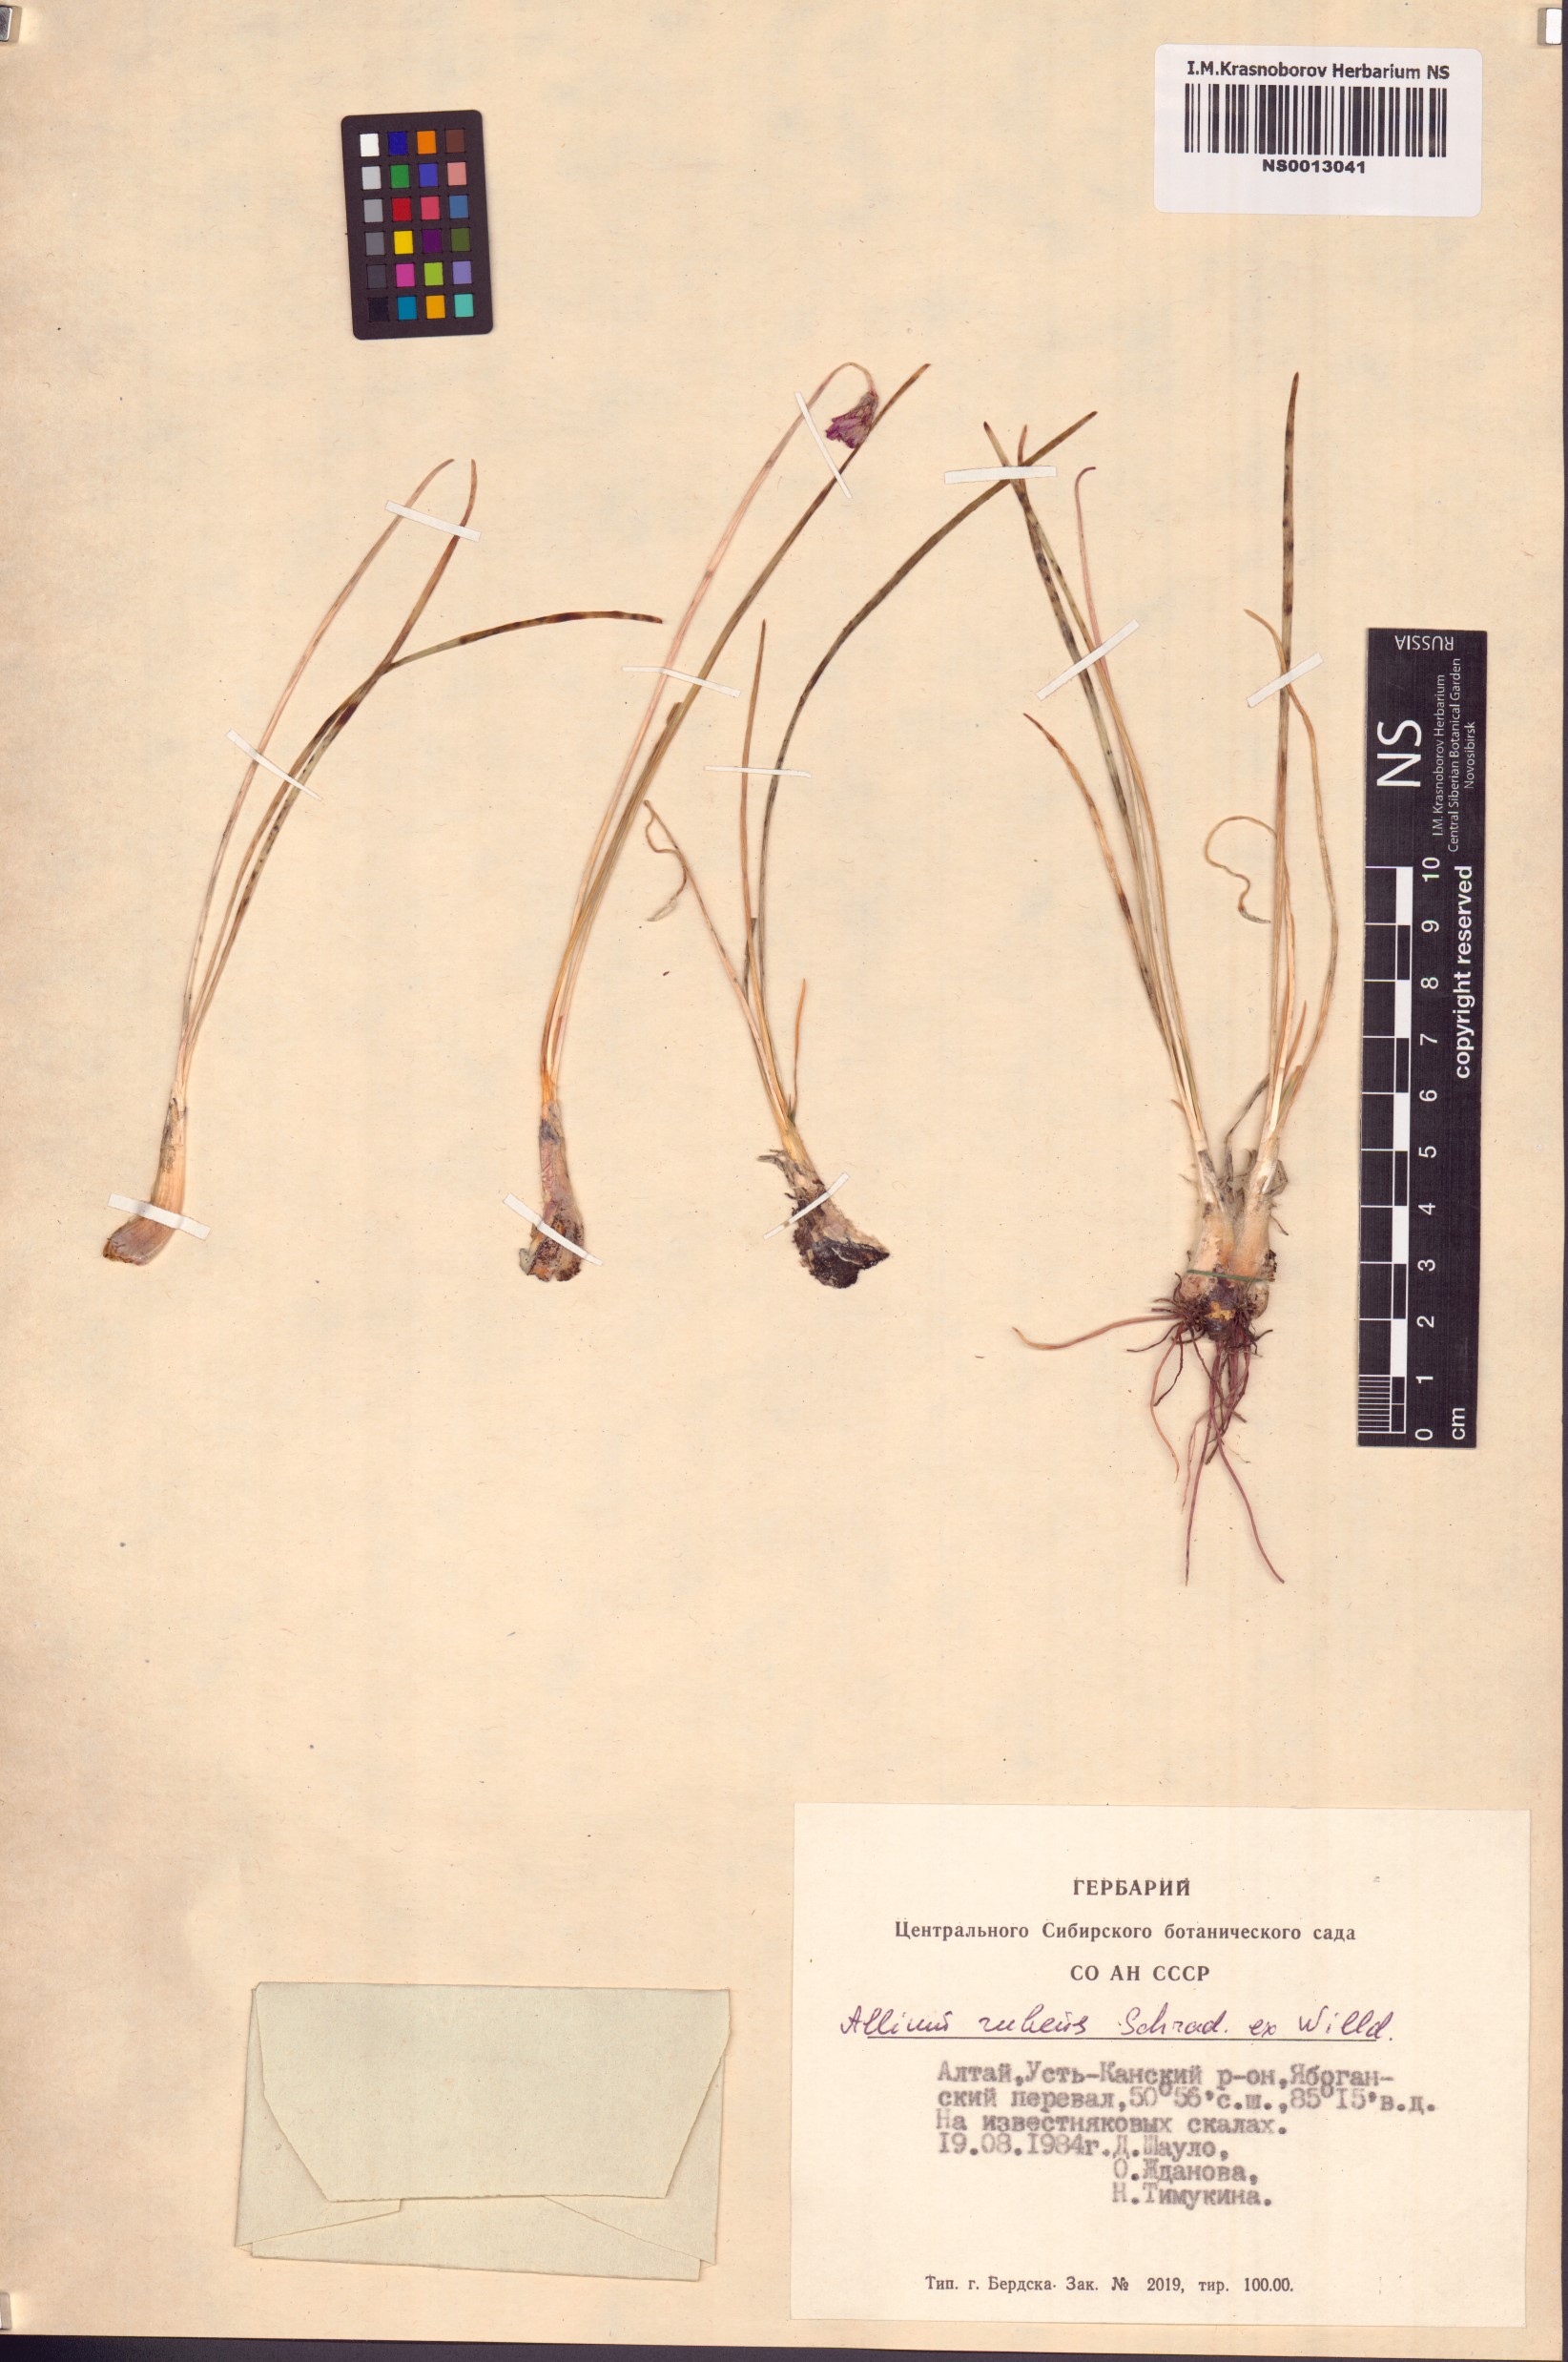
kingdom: Plantae
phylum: Tracheophyta
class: Liliopsida
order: Asparagales
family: Amaryllidaceae
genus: Allium
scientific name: Allium rubens
